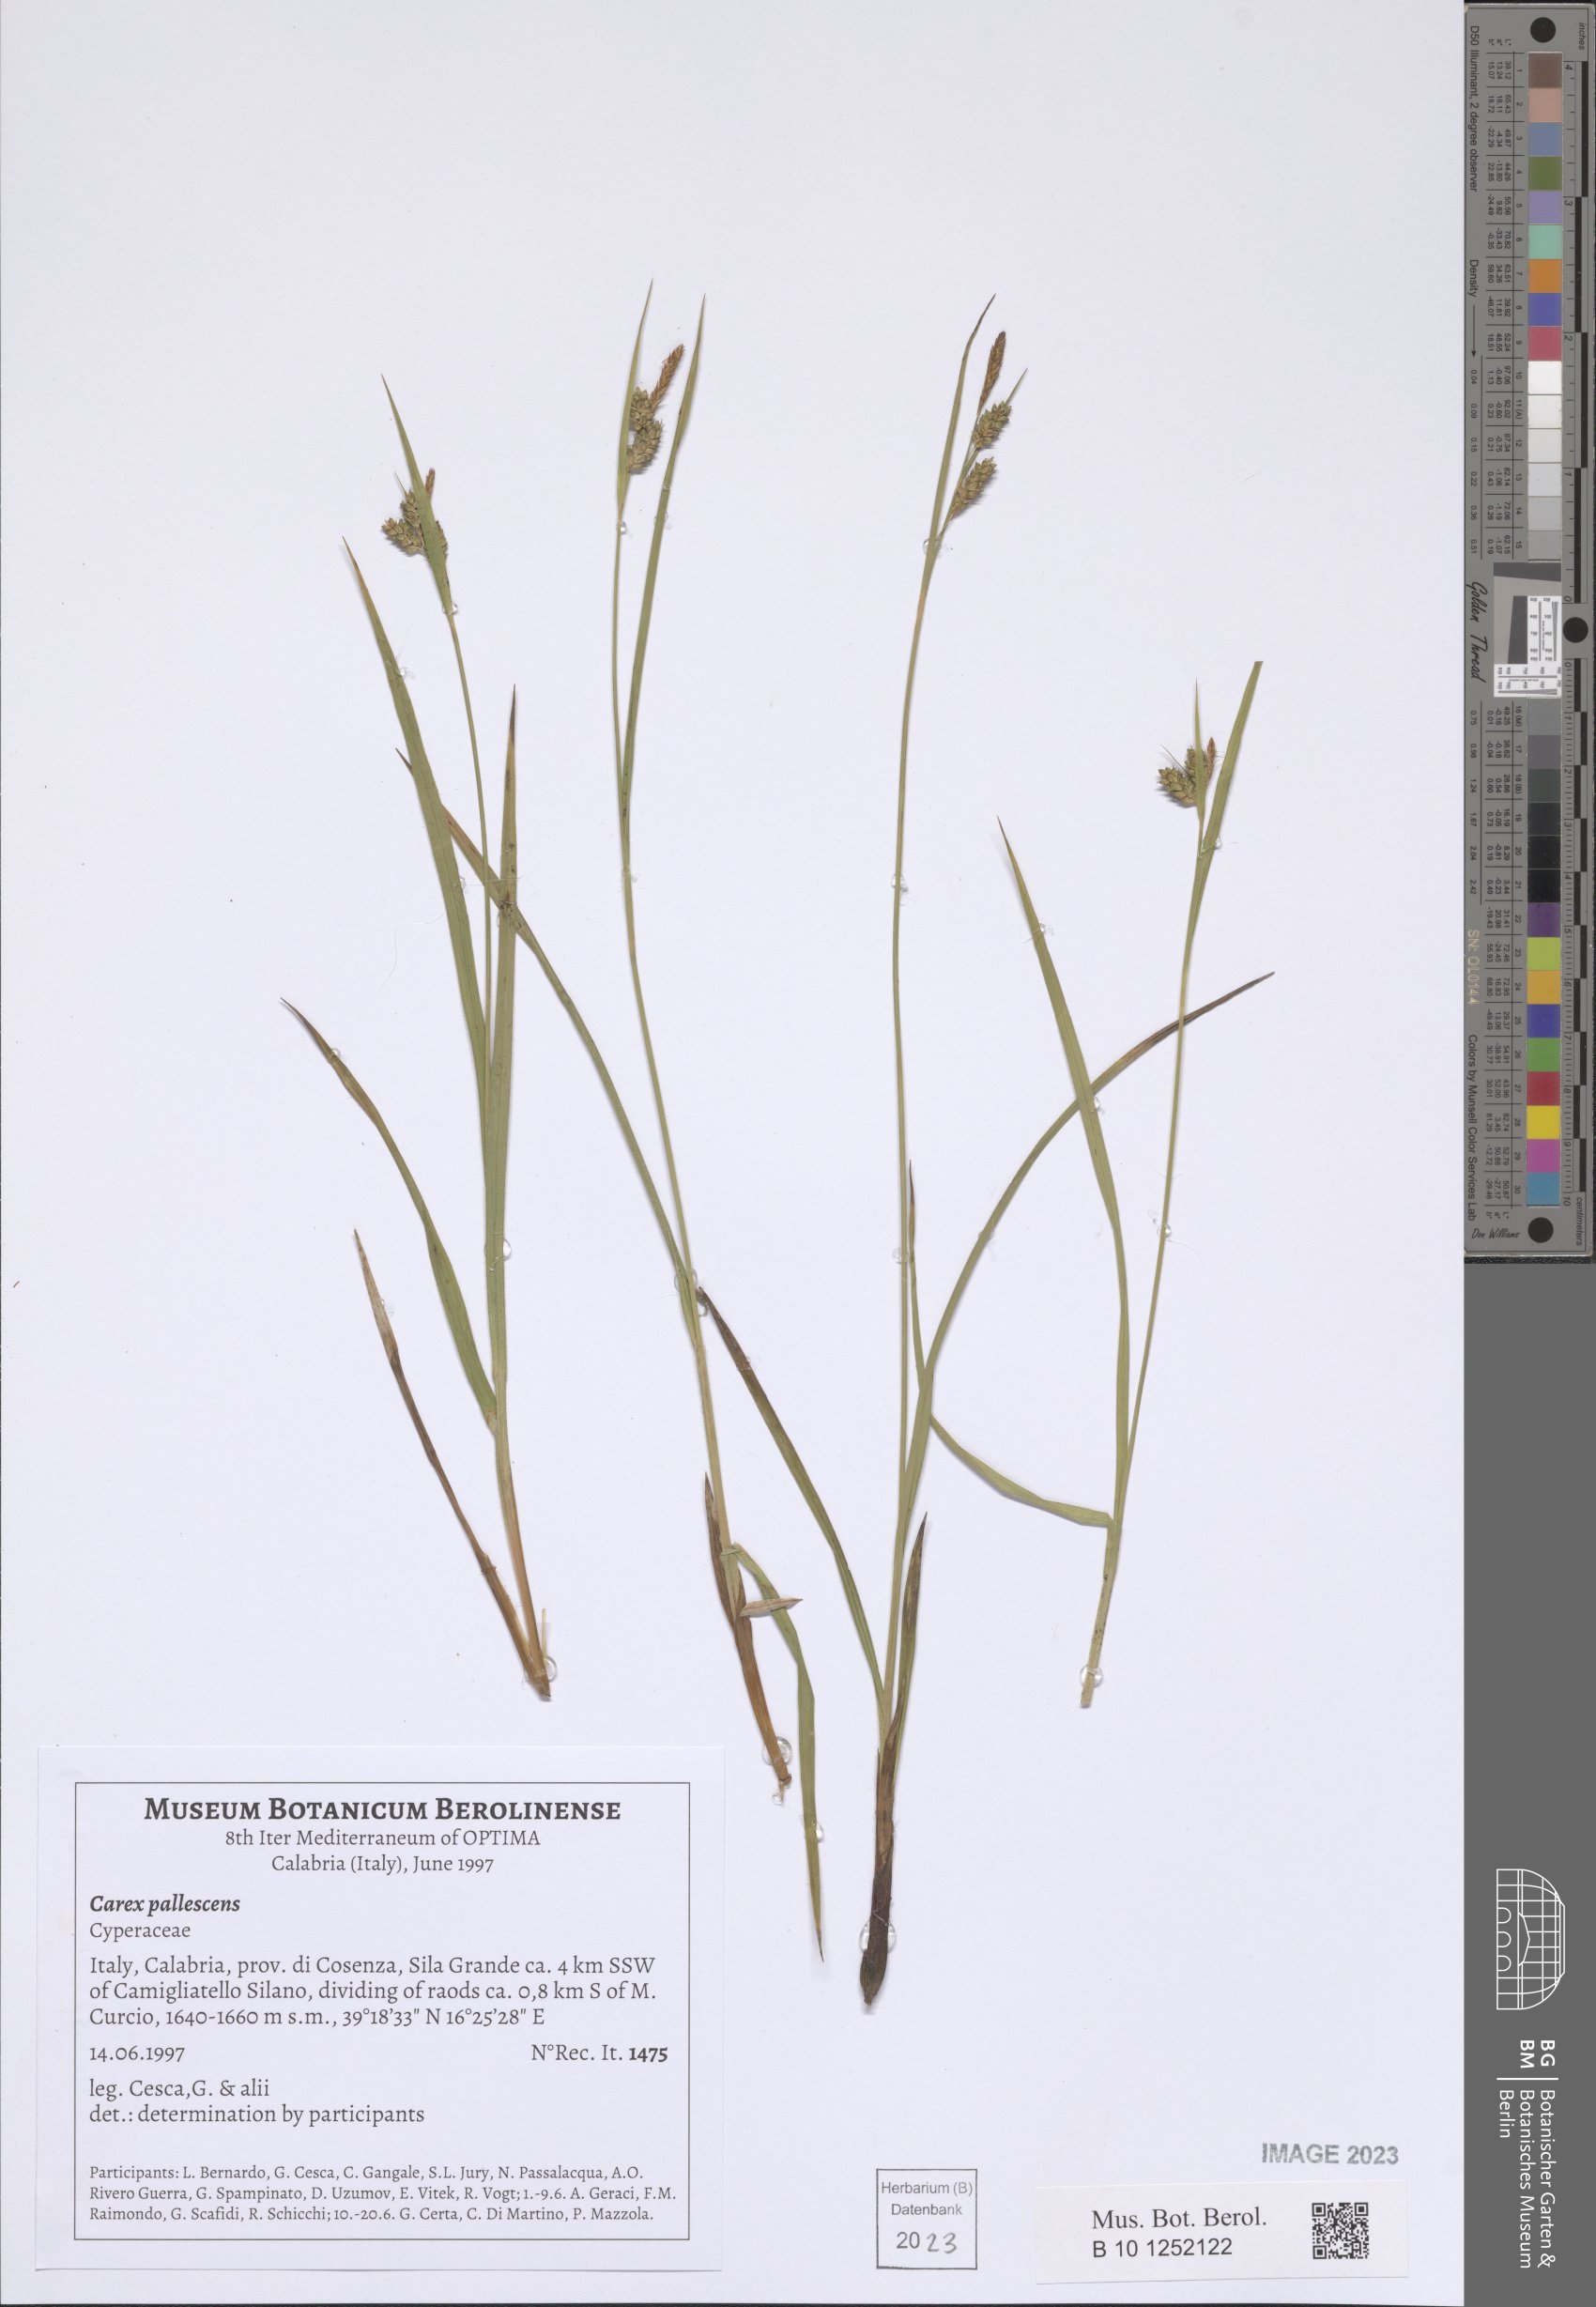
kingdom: Plantae
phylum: Tracheophyta
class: Liliopsida
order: Poales
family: Cyperaceae
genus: Carex
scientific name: Carex pallescens
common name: Pale sedge
